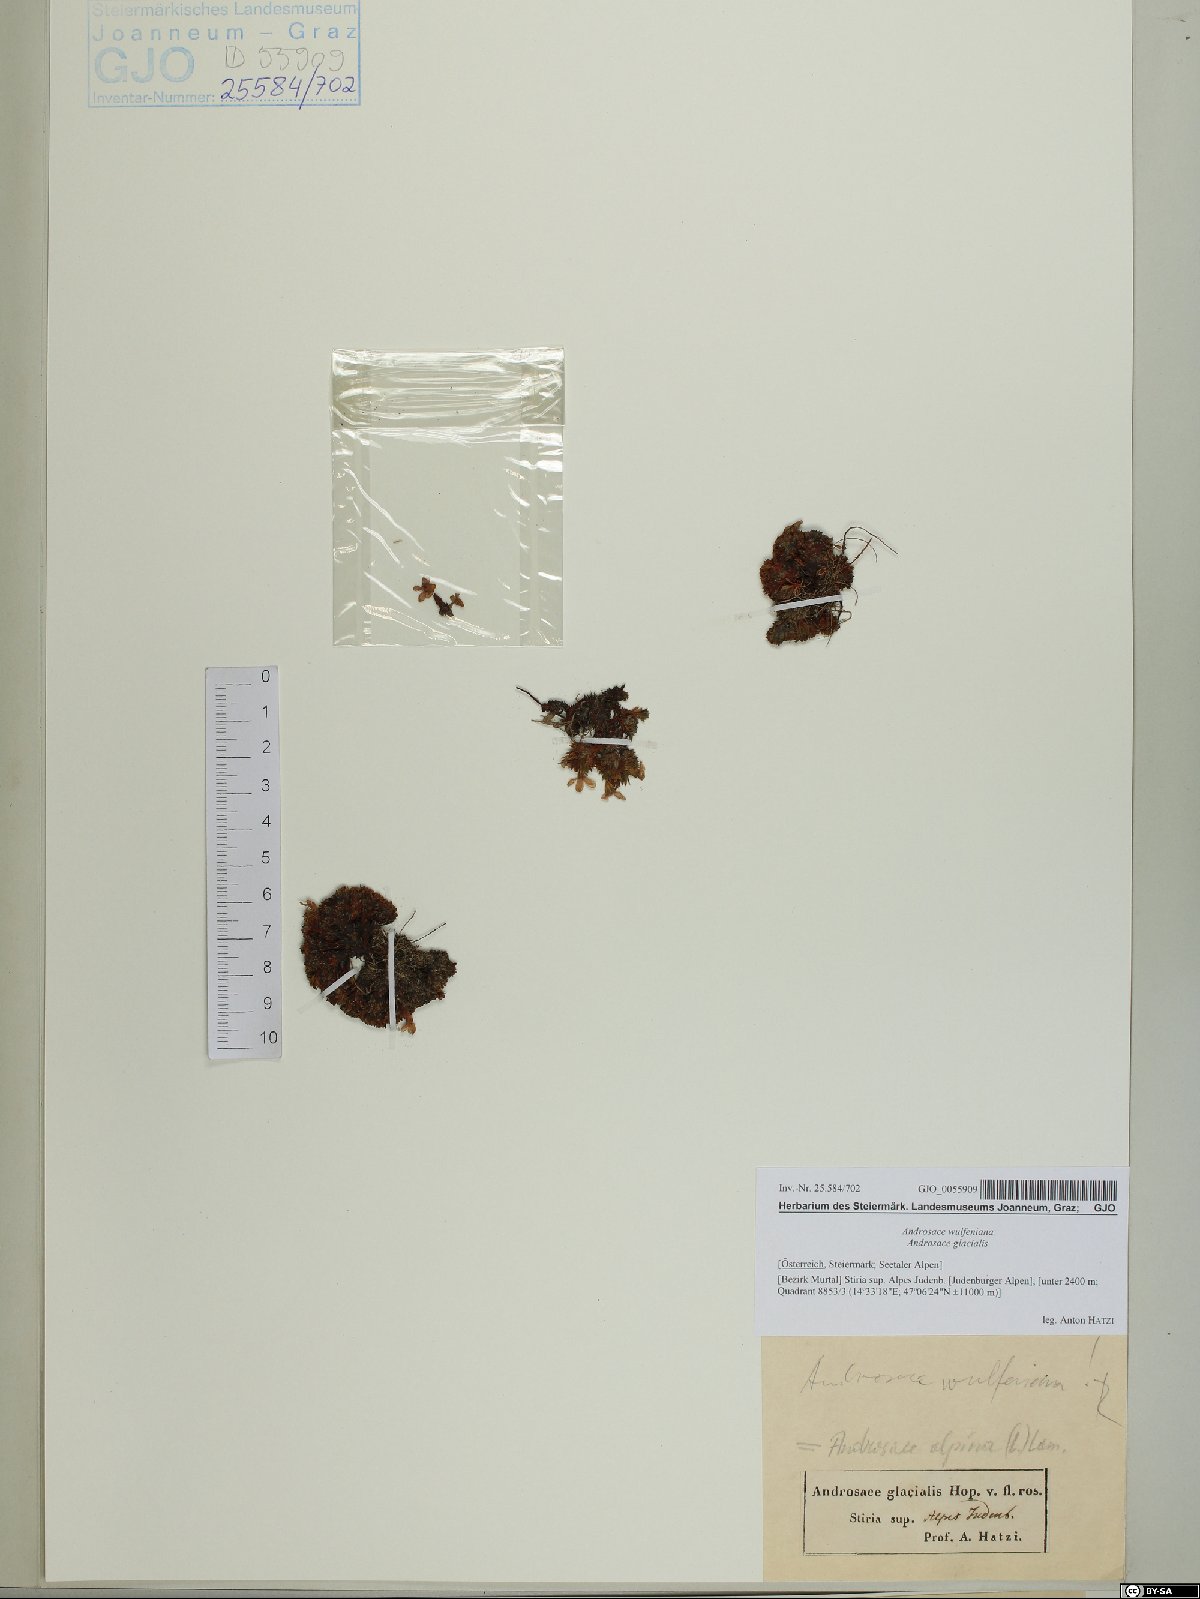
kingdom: Plantae
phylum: Tracheophyta
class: Magnoliopsida
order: Ericales
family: Primulaceae
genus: Androsace
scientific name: Androsace wulfeniana
